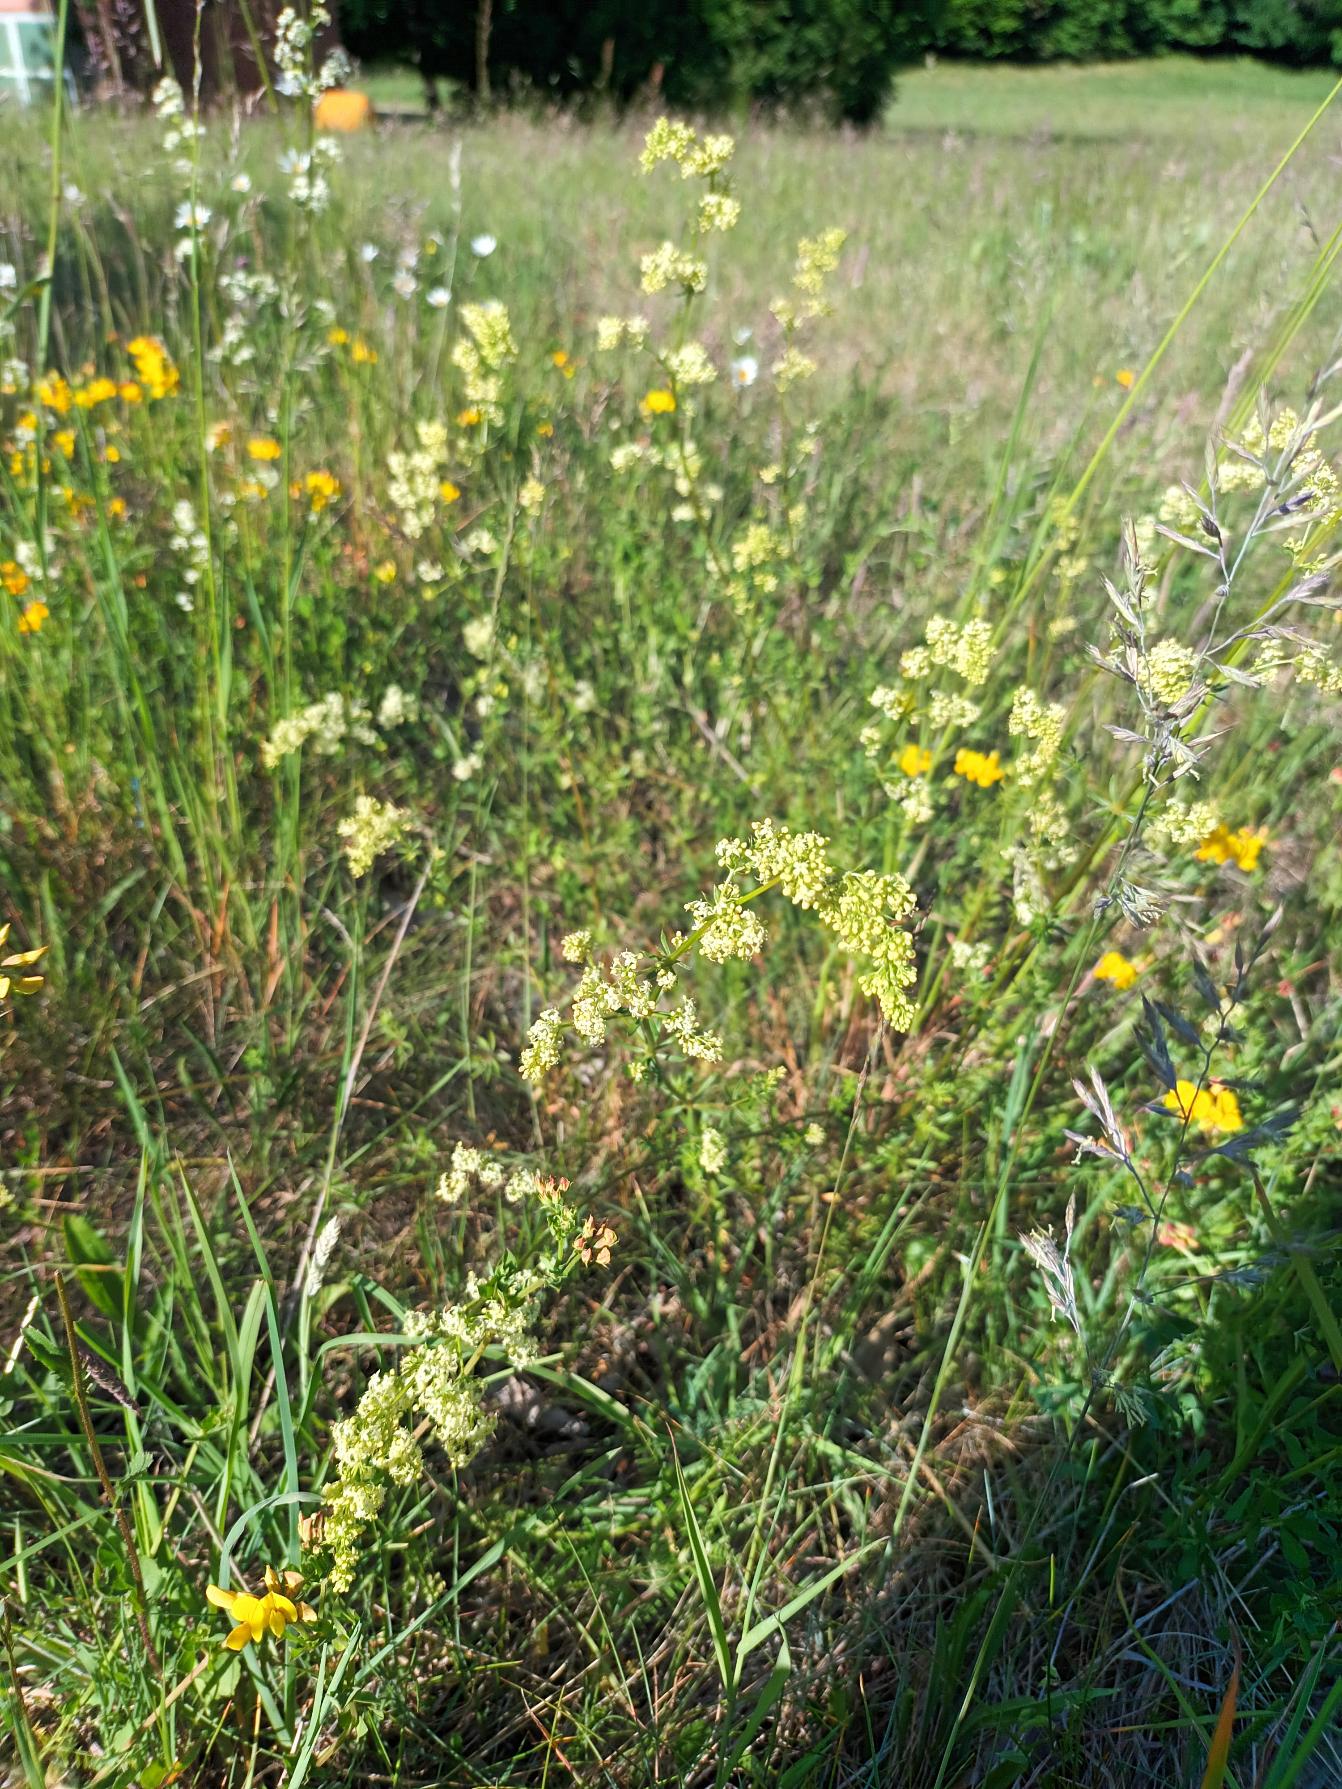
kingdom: Plantae
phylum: Tracheophyta
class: Magnoliopsida
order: Gentianales
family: Rubiaceae
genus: Galium
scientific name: Galium
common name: Hvidgul snerre
